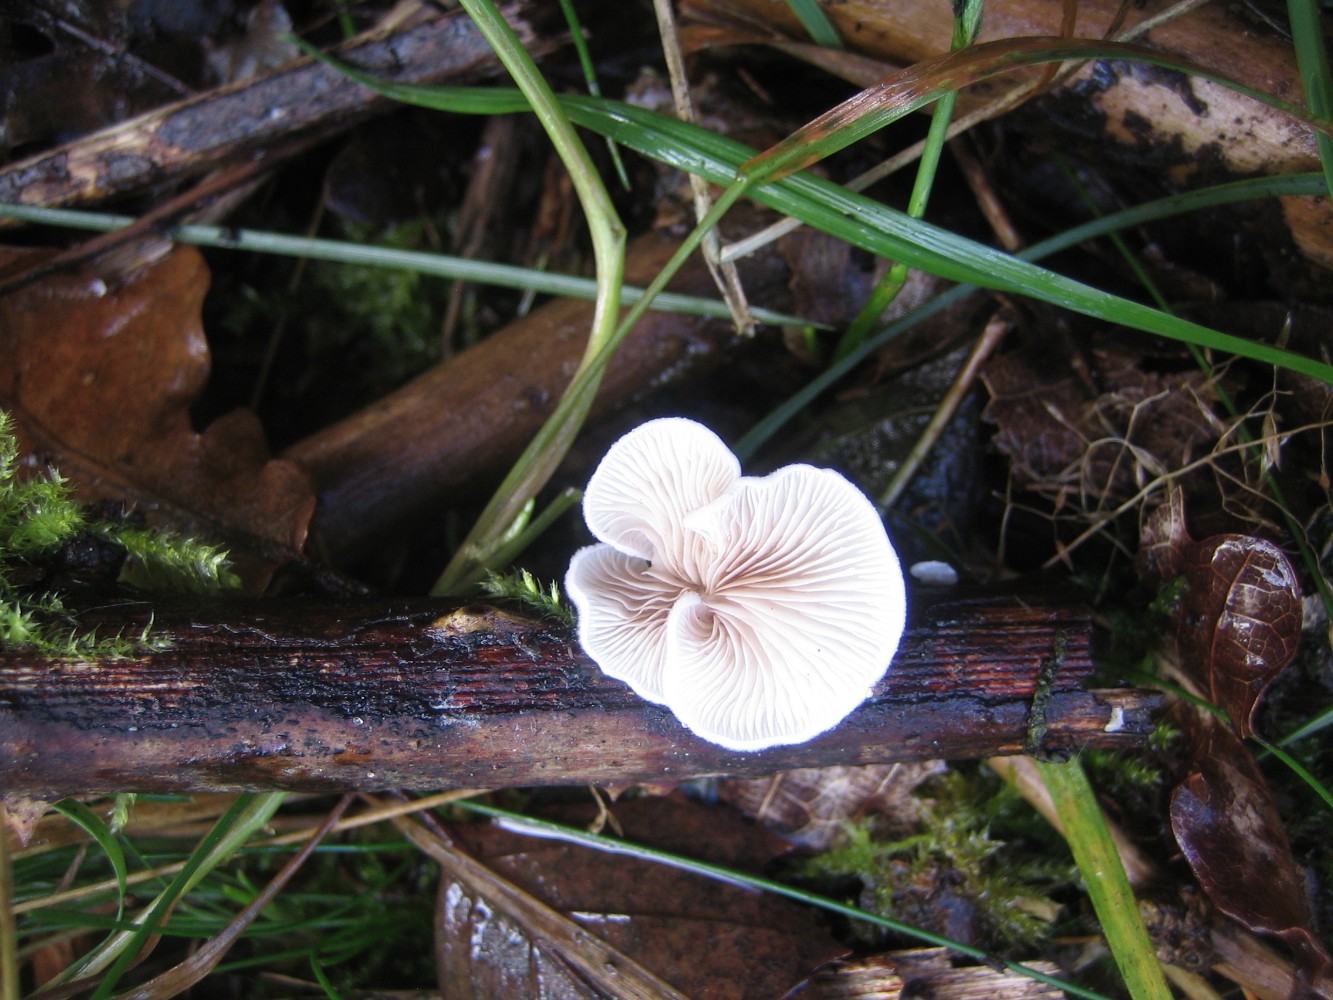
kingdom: Fungi
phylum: Basidiomycota
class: Agaricomycetes
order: Agaricales
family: Crepidotaceae
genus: Crepidotus
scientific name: Crepidotus
